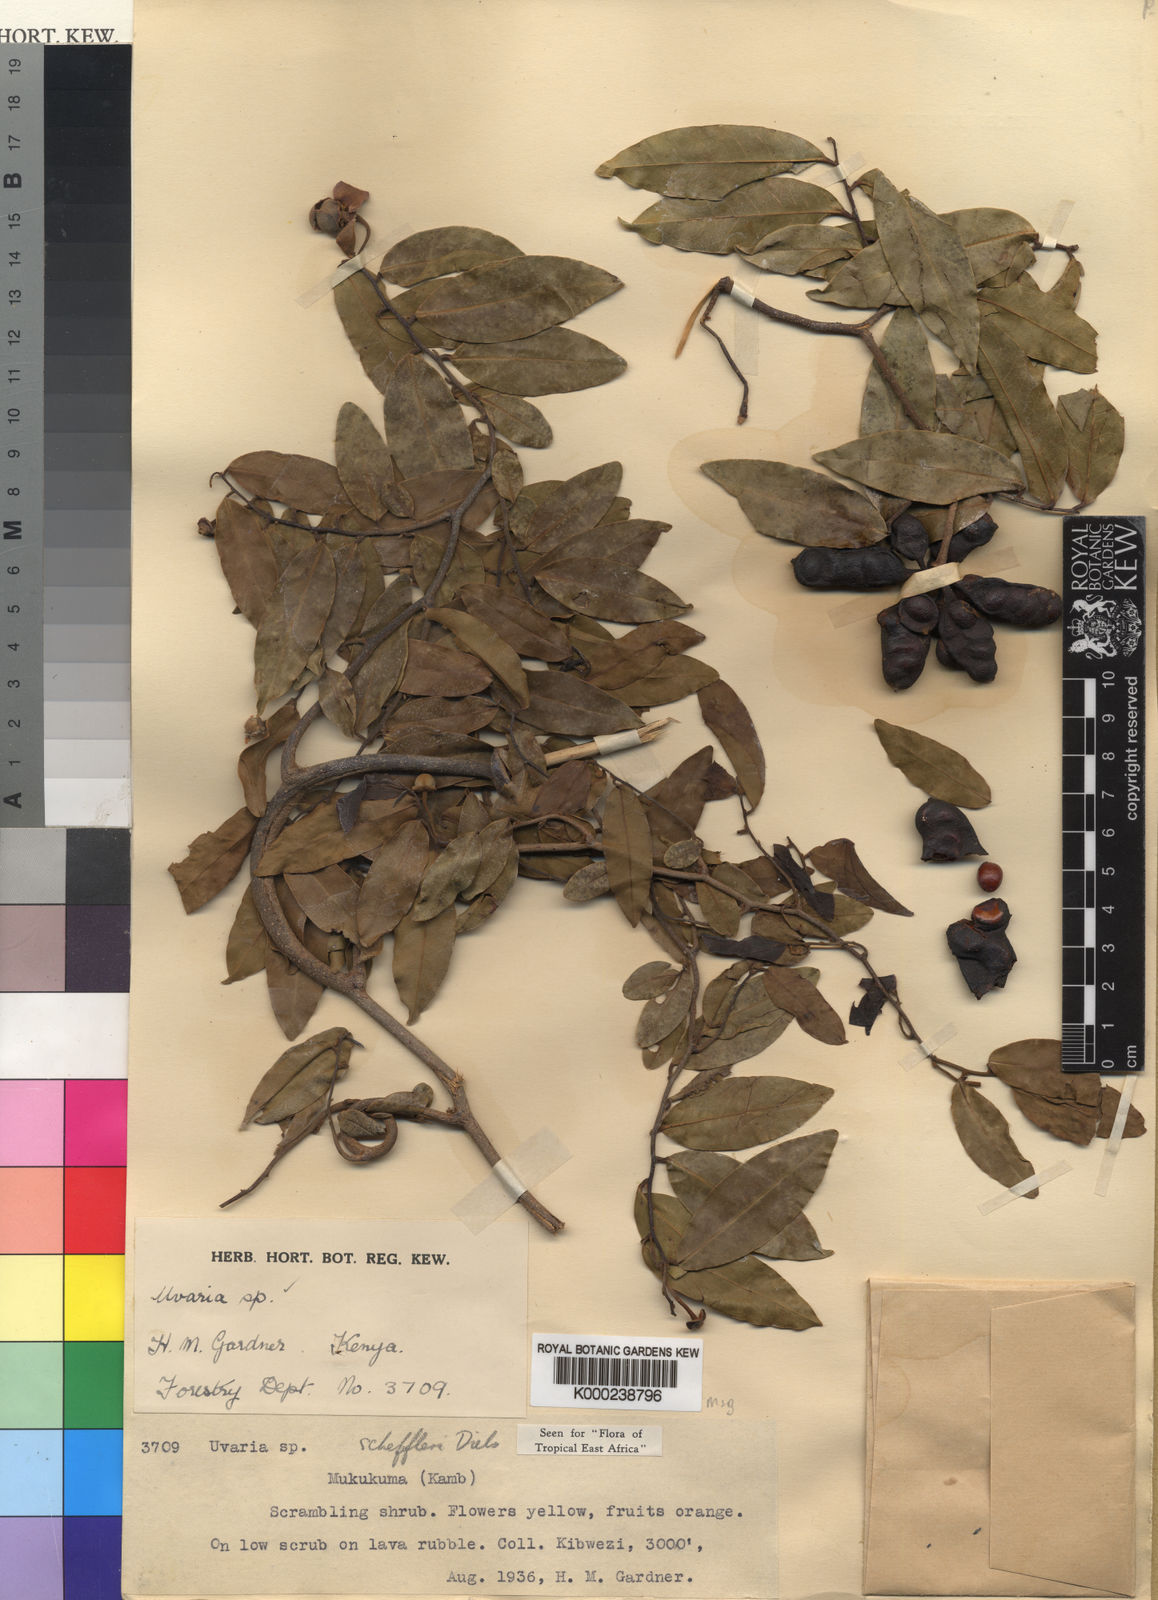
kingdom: Plantae
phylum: Tracheophyta
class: Magnoliopsida
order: Magnoliales
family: Annonaceae
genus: Uvaria
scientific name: Uvaria scheffleri
